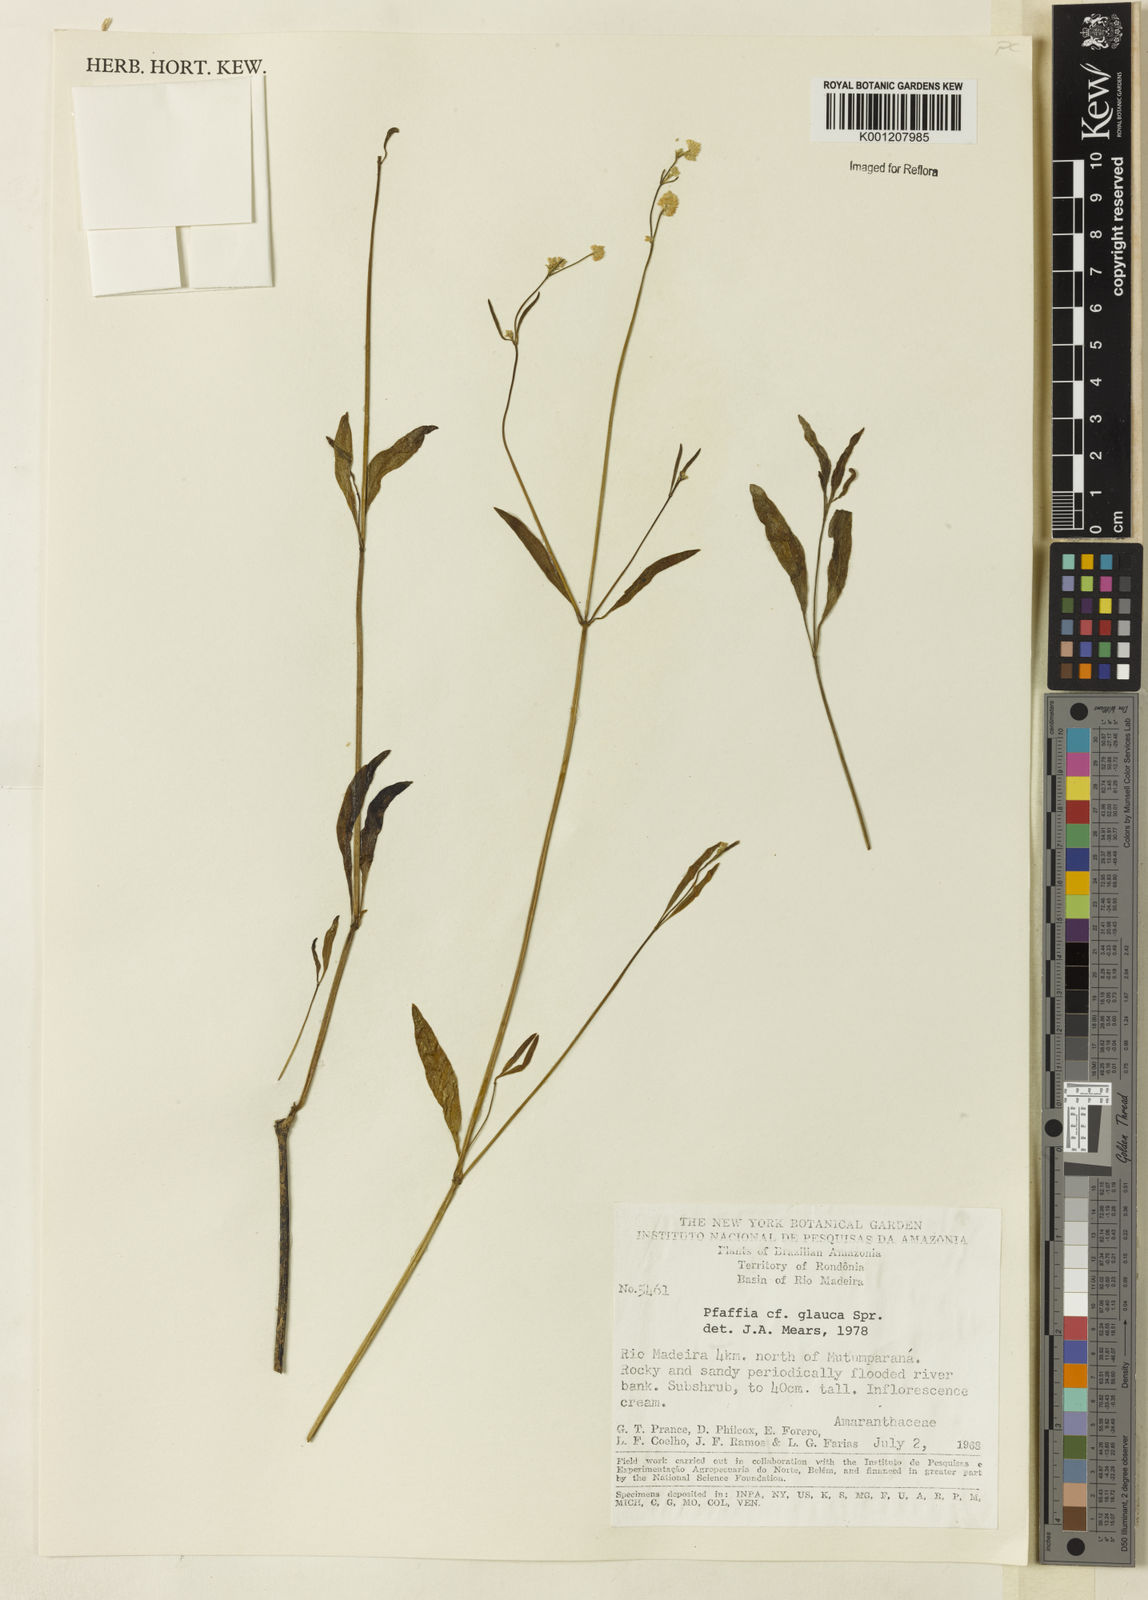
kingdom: Plantae
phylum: Tracheophyta
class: Magnoliopsida
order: Caryophyllales
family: Amaranthaceae
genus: Pfaffia
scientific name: Pfaffia
